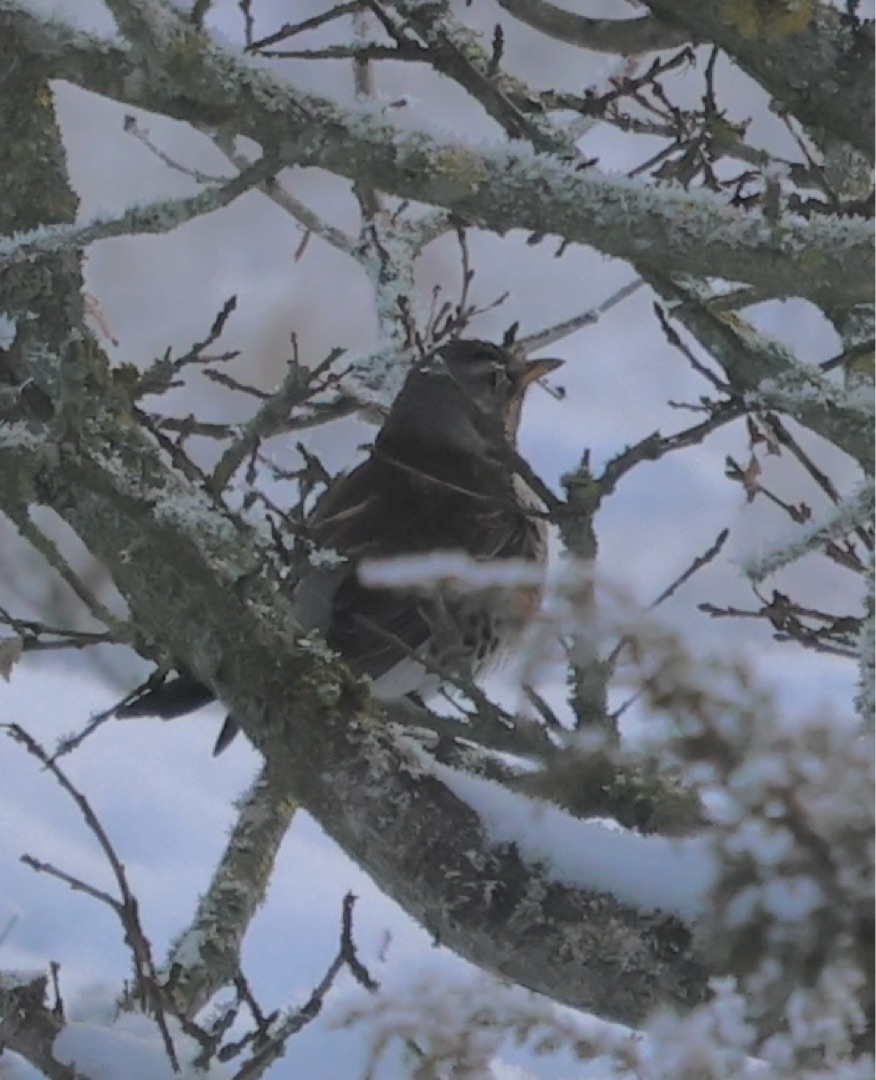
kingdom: Animalia
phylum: Chordata
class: Aves
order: Passeriformes
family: Turdidae
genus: Turdus
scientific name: Turdus pilaris
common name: Sjagger
